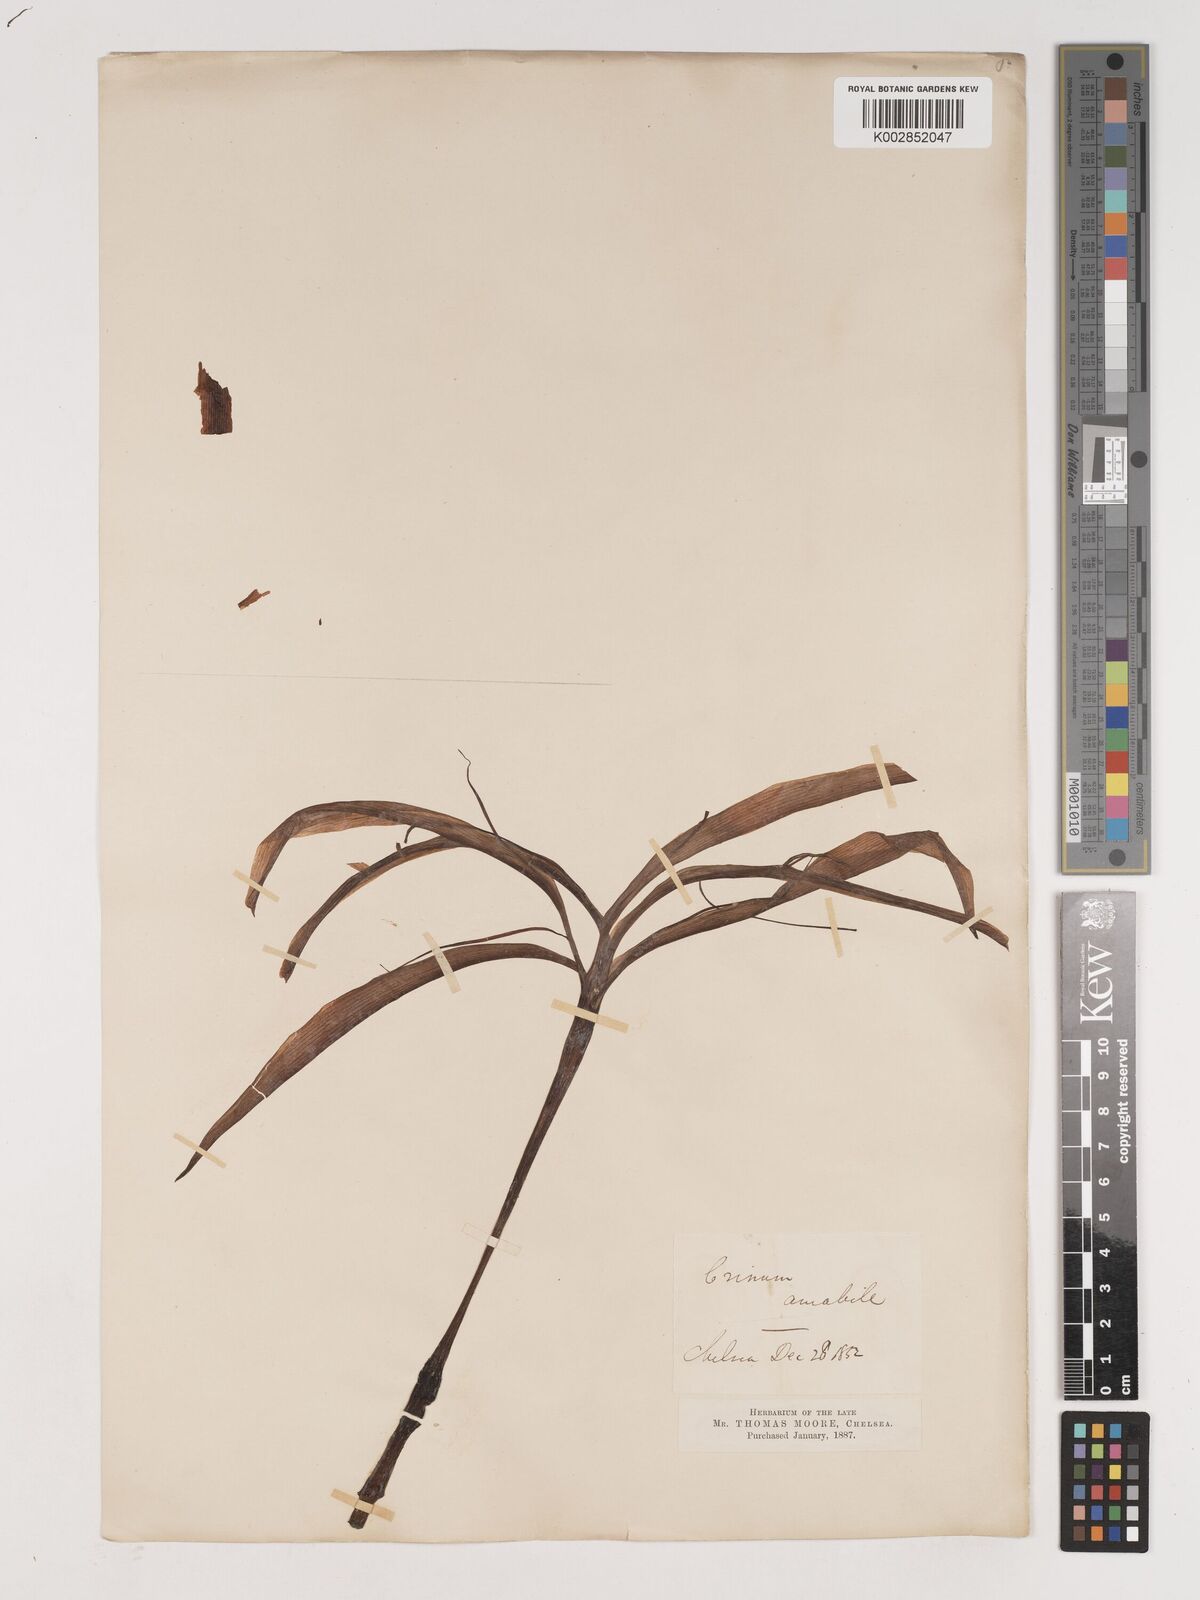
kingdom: Plantae
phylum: Tracheophyta
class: Liliopsida
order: Asparagales
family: Amaryllidaceae
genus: Crinum
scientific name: Crinum amabile
